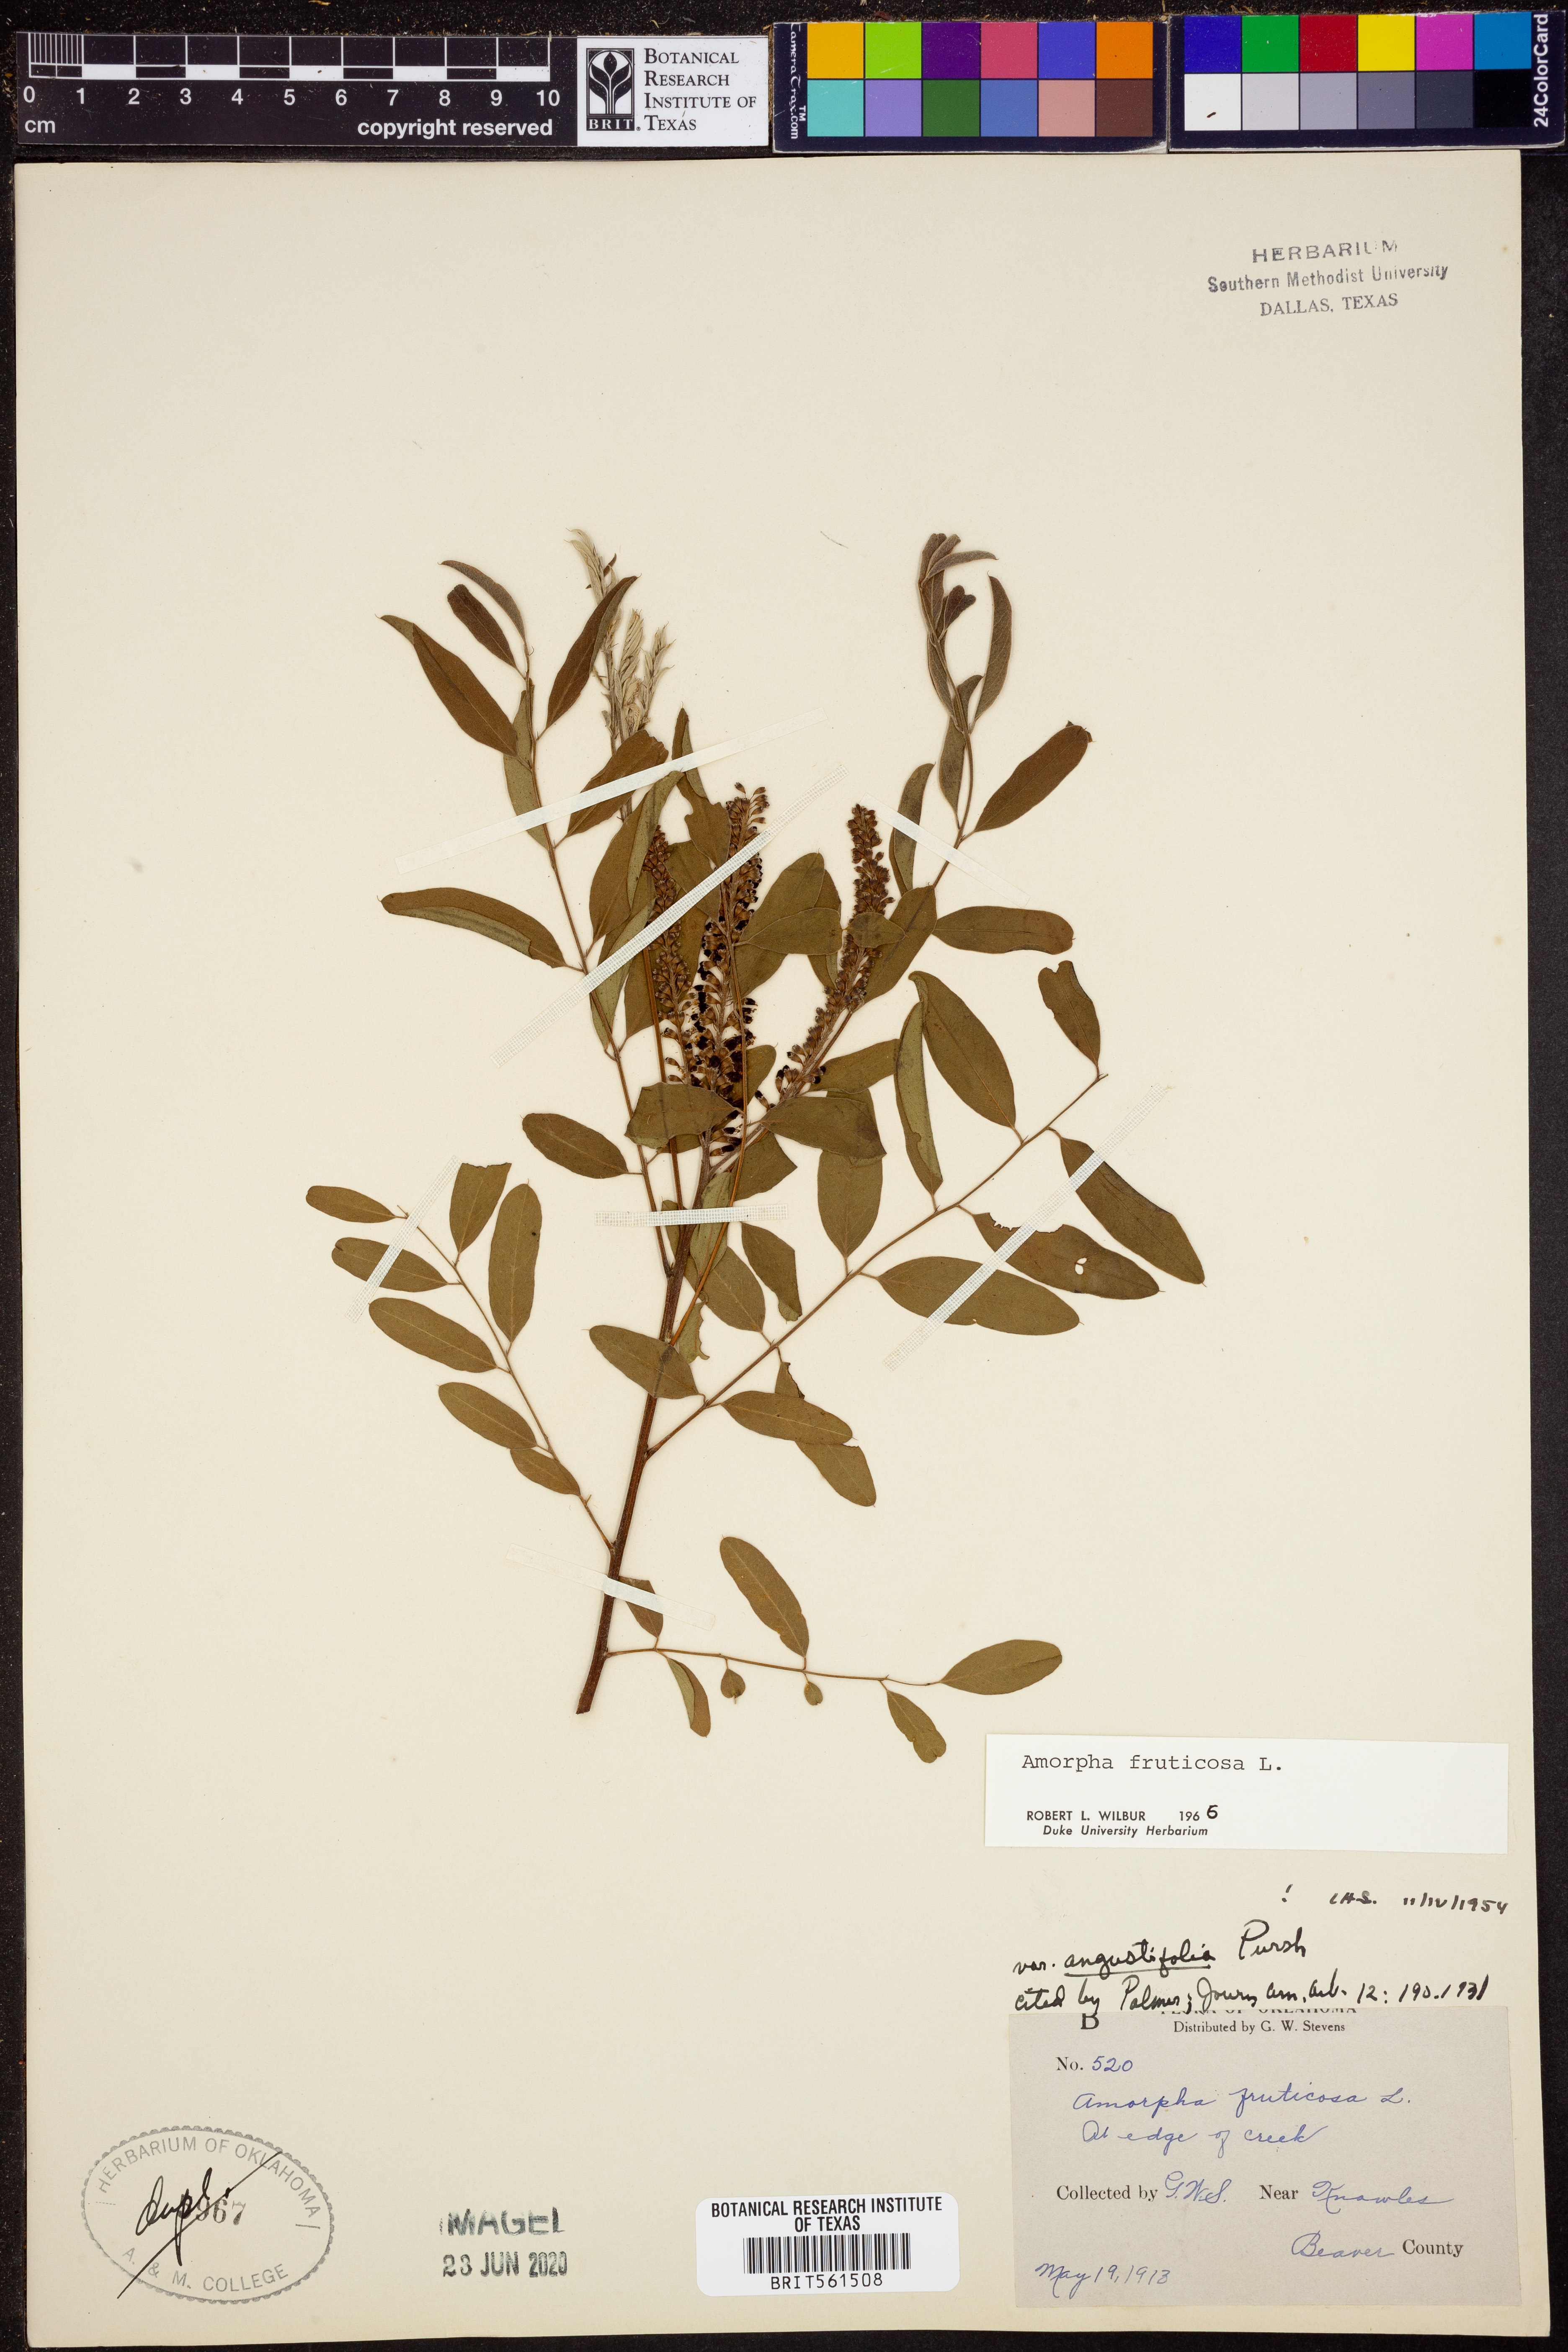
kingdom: Plantae
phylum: Tracheophyta
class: Magnoliopsida
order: Fabales
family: Fabaceae
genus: Amorpha
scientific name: Amorpha fruticosa
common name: False indigo
